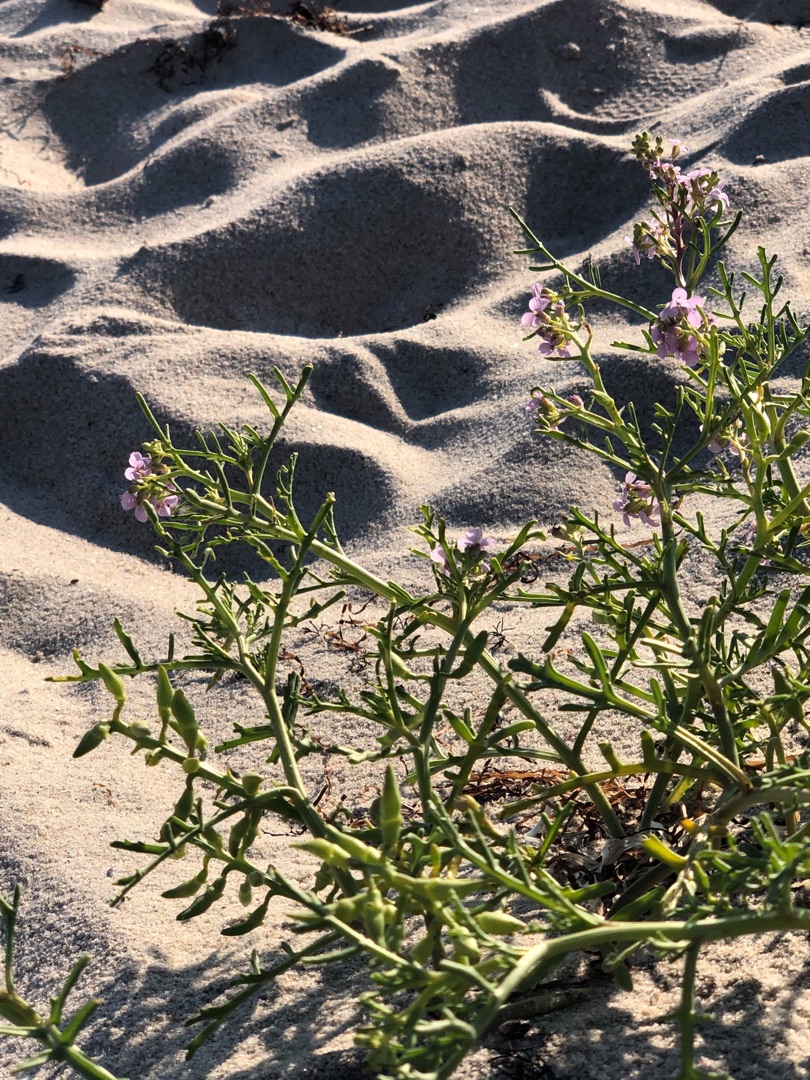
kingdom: Plantae
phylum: Tracheophyta
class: Magnoliopsida
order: Brassicales
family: Brassicaceae
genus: Cakile
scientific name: Cakile maritima
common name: Strandsennep
